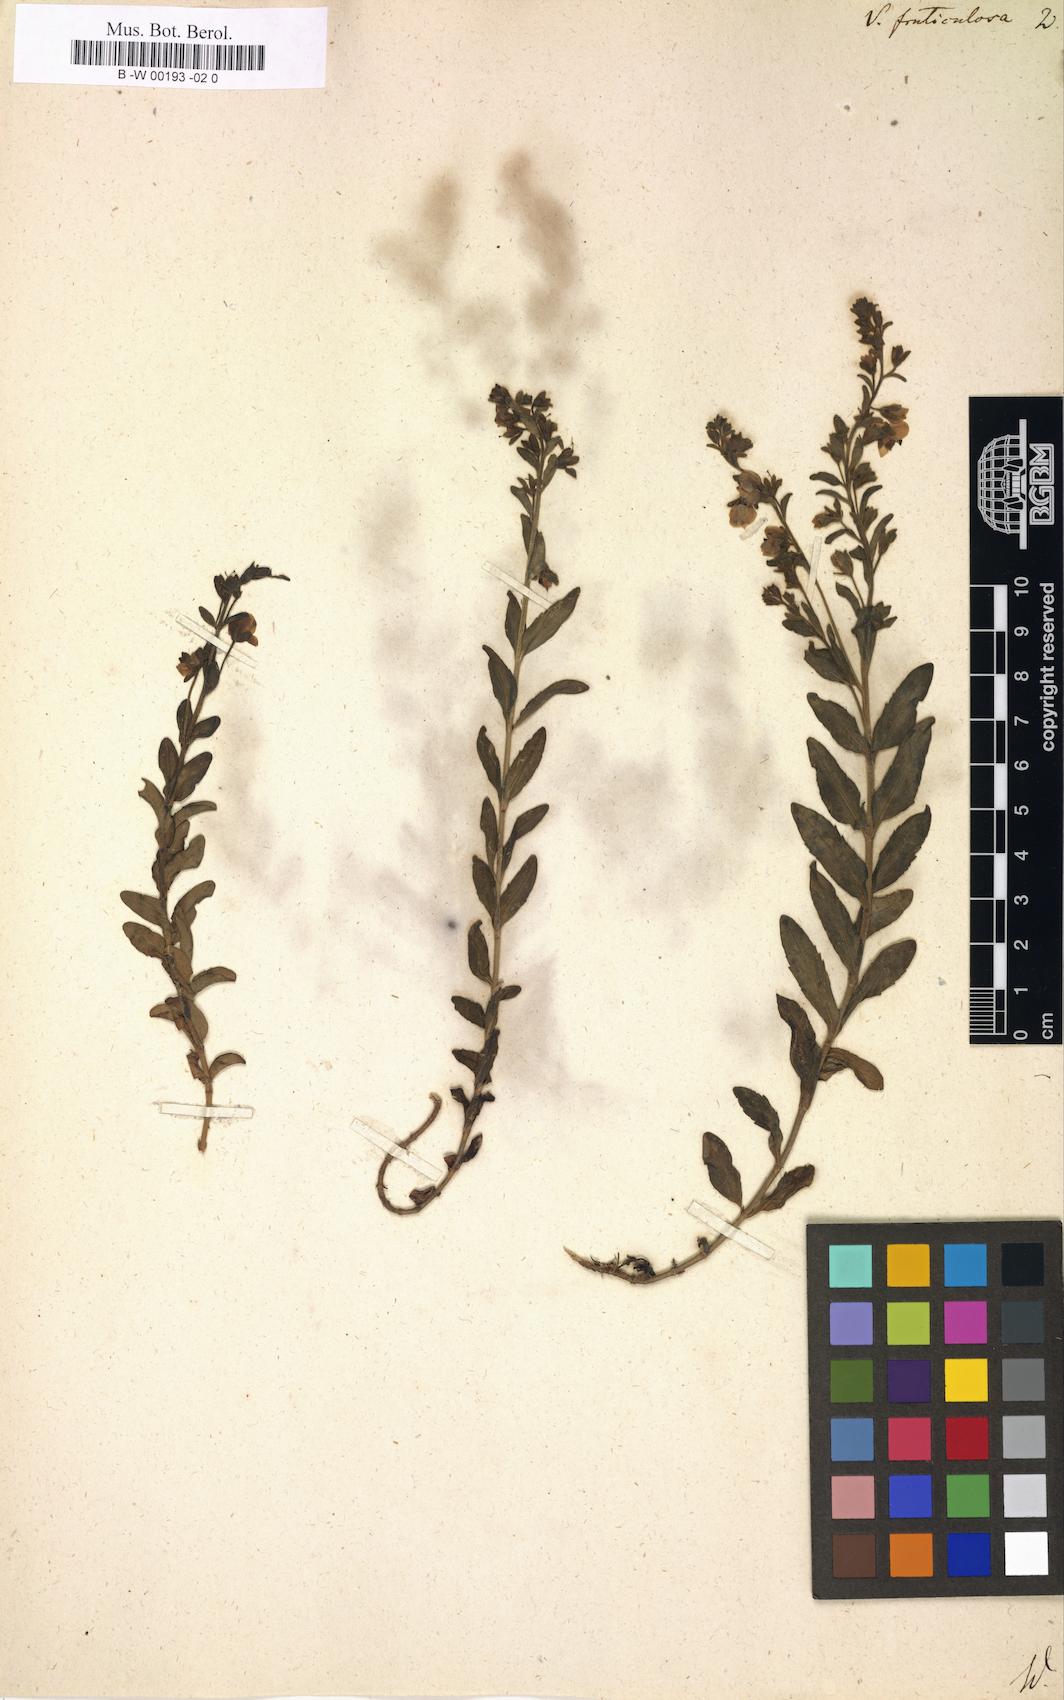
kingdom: Plantae
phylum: Tracheophyta
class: Magnoliopsida
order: Lamiales
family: Plantaginaceae
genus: Veronica
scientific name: Veronica fruticulosa
